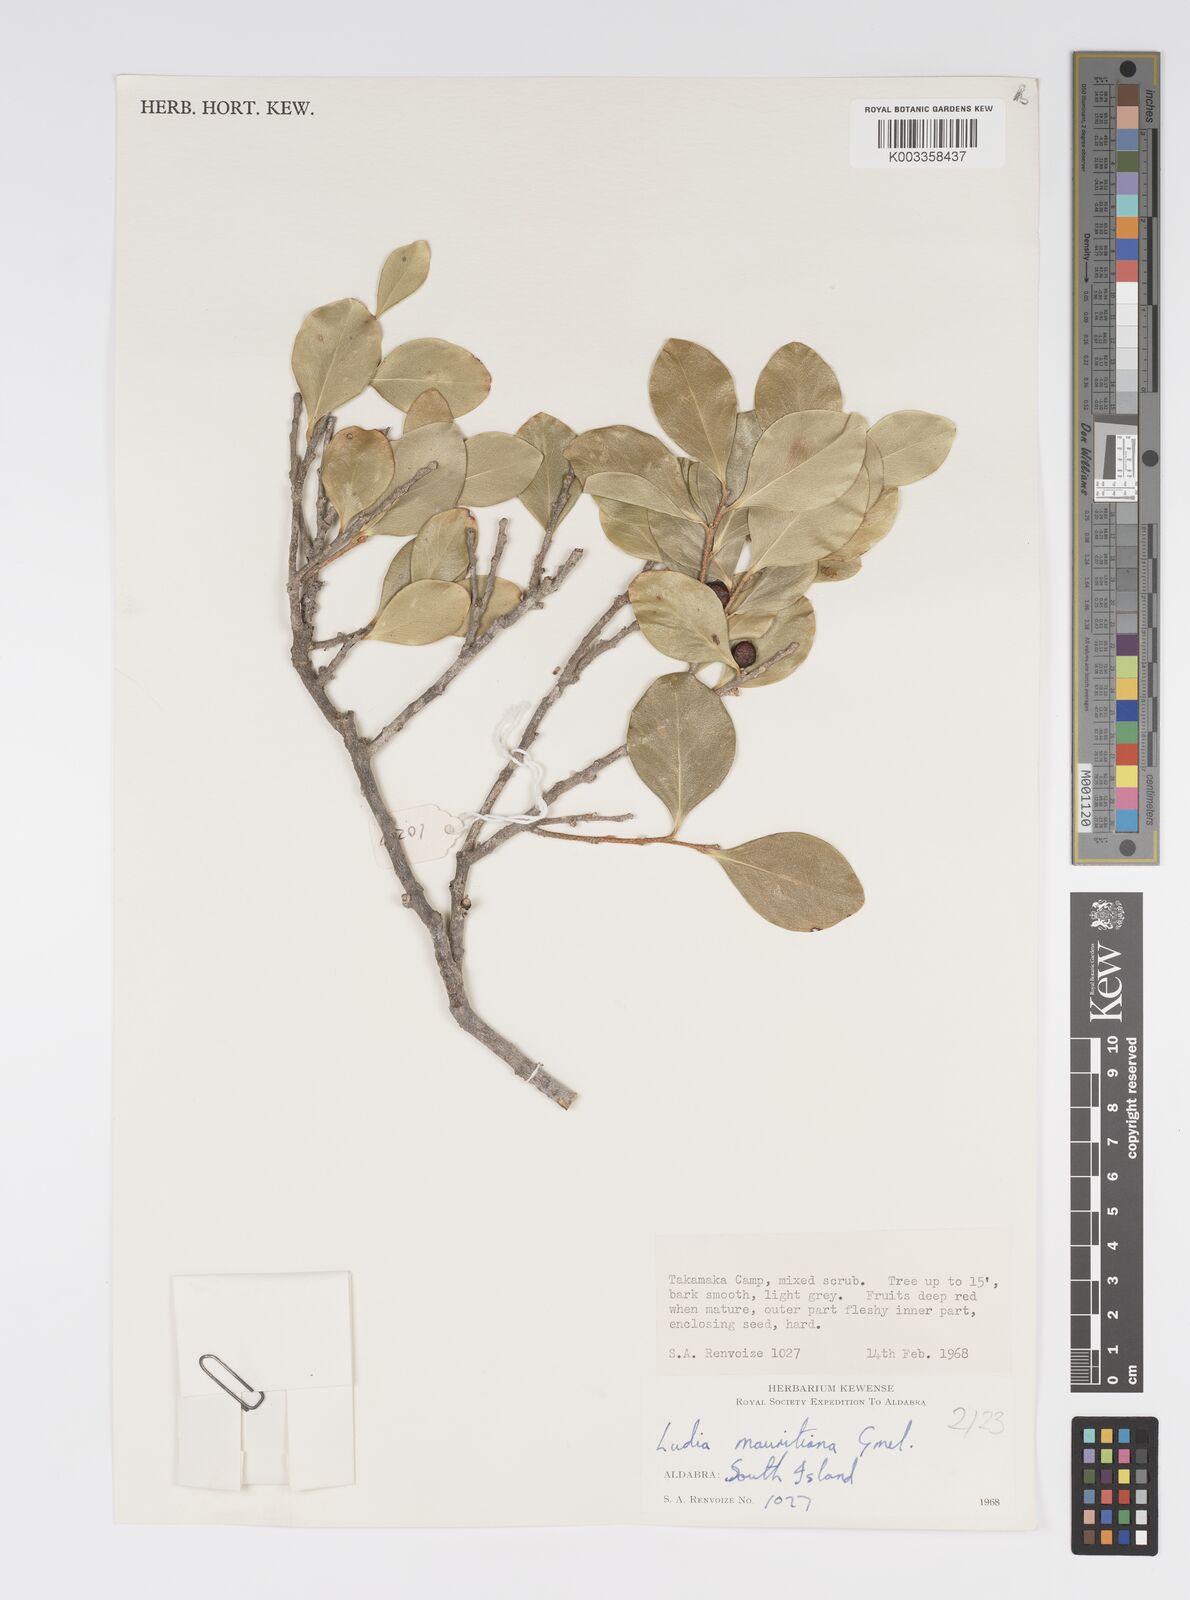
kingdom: Plantae
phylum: Tracheophyta
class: Magnoliopsida
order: Malpighiales
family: Salicaceae
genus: Ludia
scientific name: Ludia mauritiana
